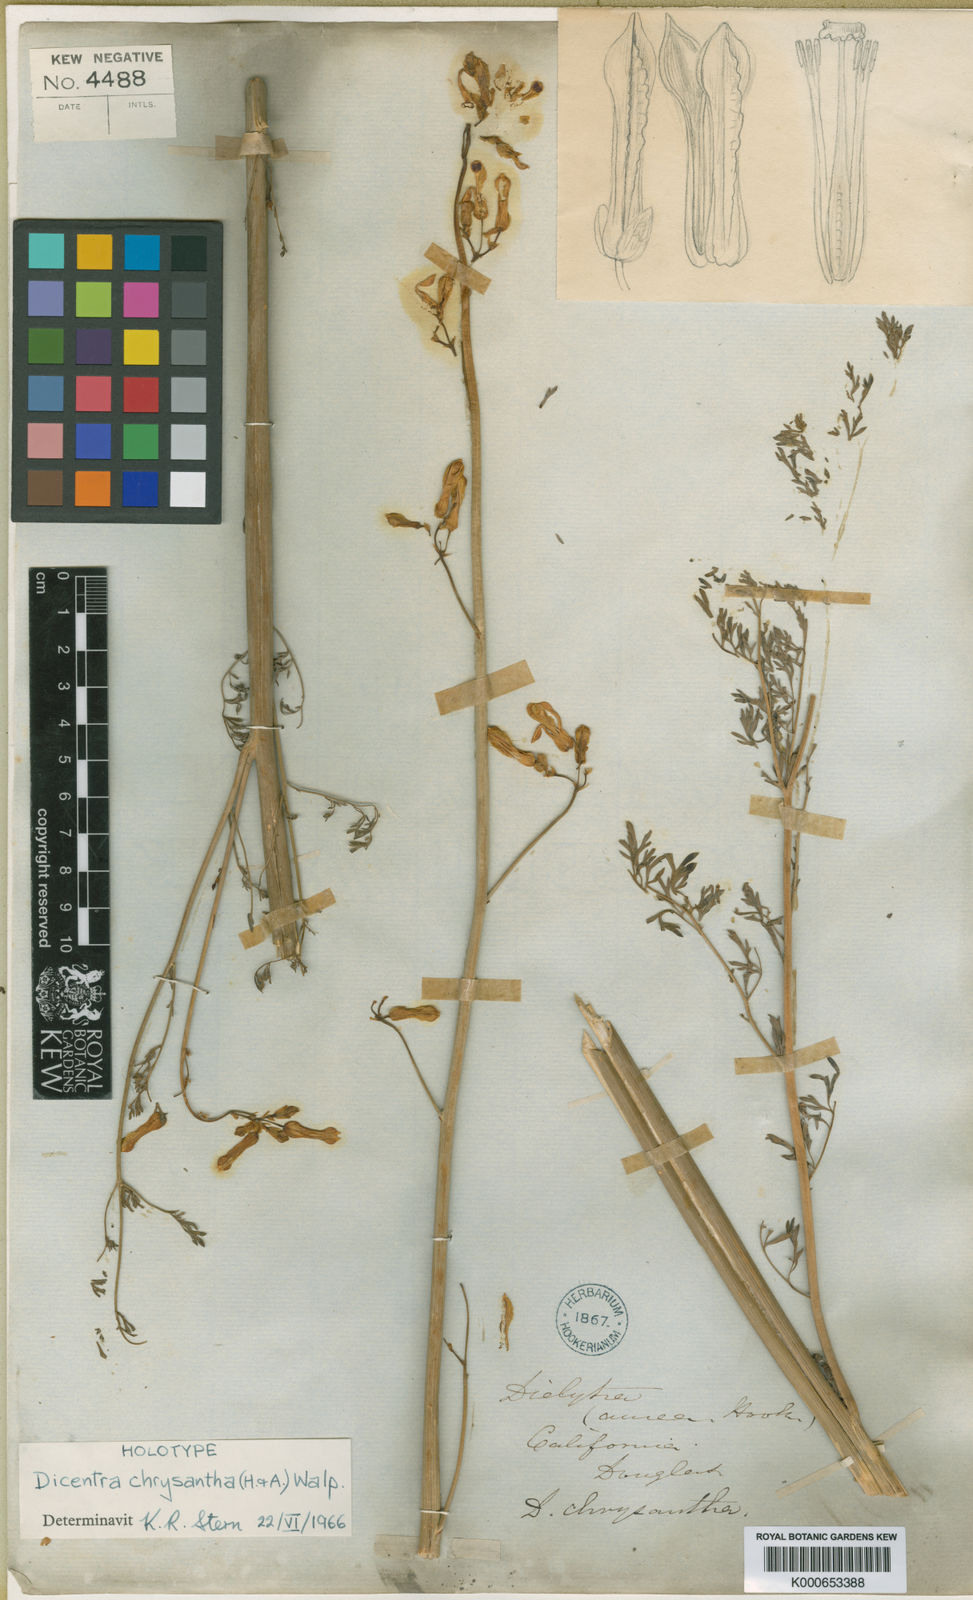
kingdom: Plantae
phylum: Tracheophyta
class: Magnoliopsida
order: Ranunculales
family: Papaveraceae
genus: Ehrendorferia
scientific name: Ehrendorferia chrysantha
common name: Golden eardrops
